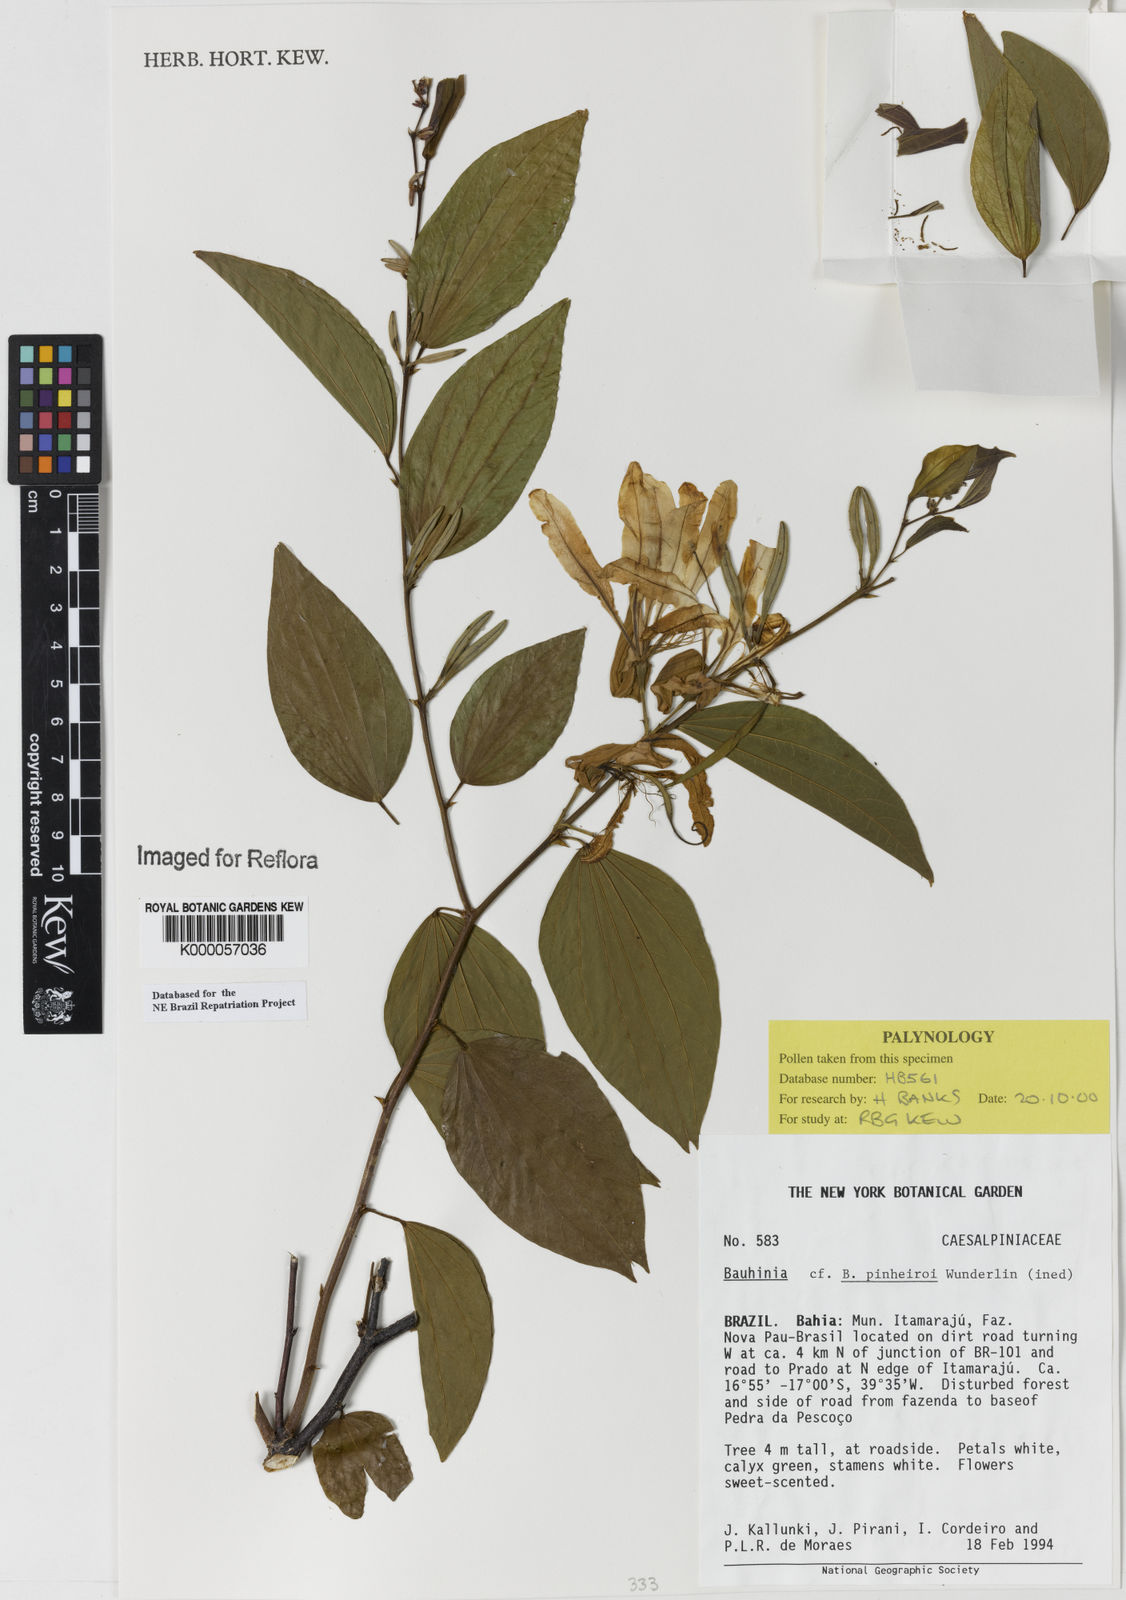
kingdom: Plantae
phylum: Tracheophyta
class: Magnoliopsida
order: Fabales
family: Fabaceae
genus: Bauhinia
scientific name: Bauhinia pinheiroi
